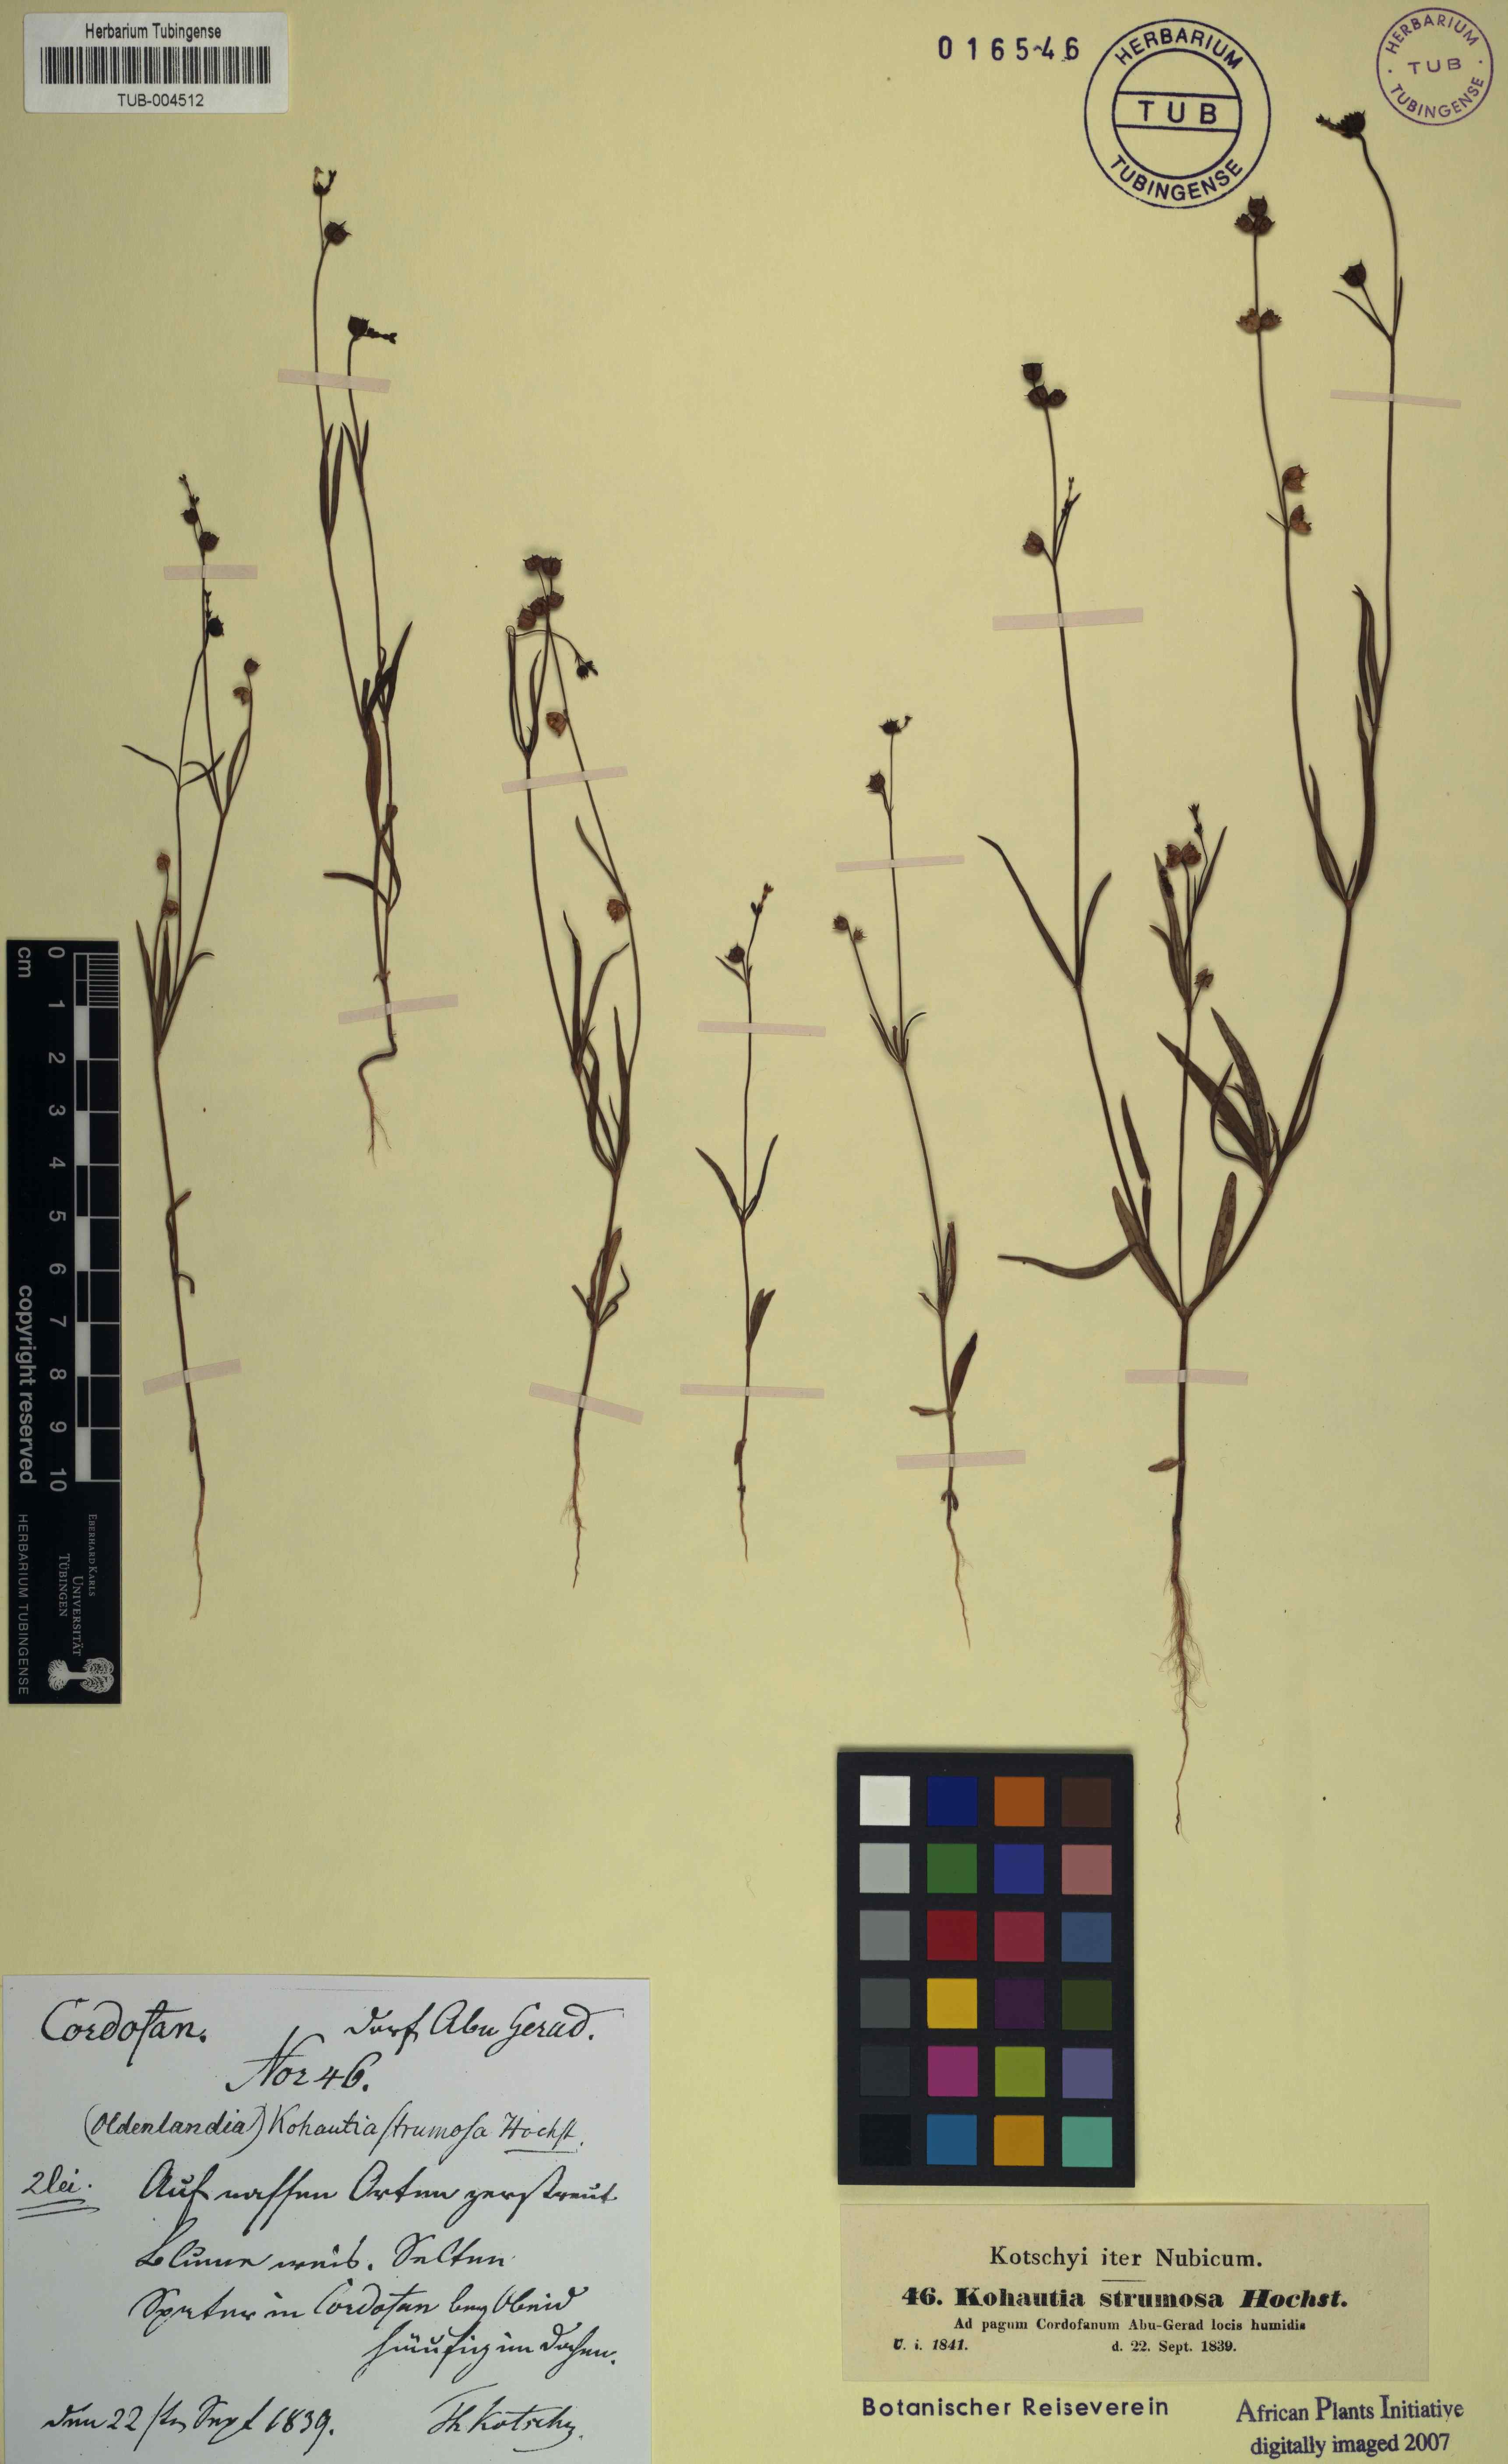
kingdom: Plantae
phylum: Tracheophyta
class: Magnoliopsida
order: Gentianales
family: Rubiaceae
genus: Kohautia
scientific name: Kohautia aspera
